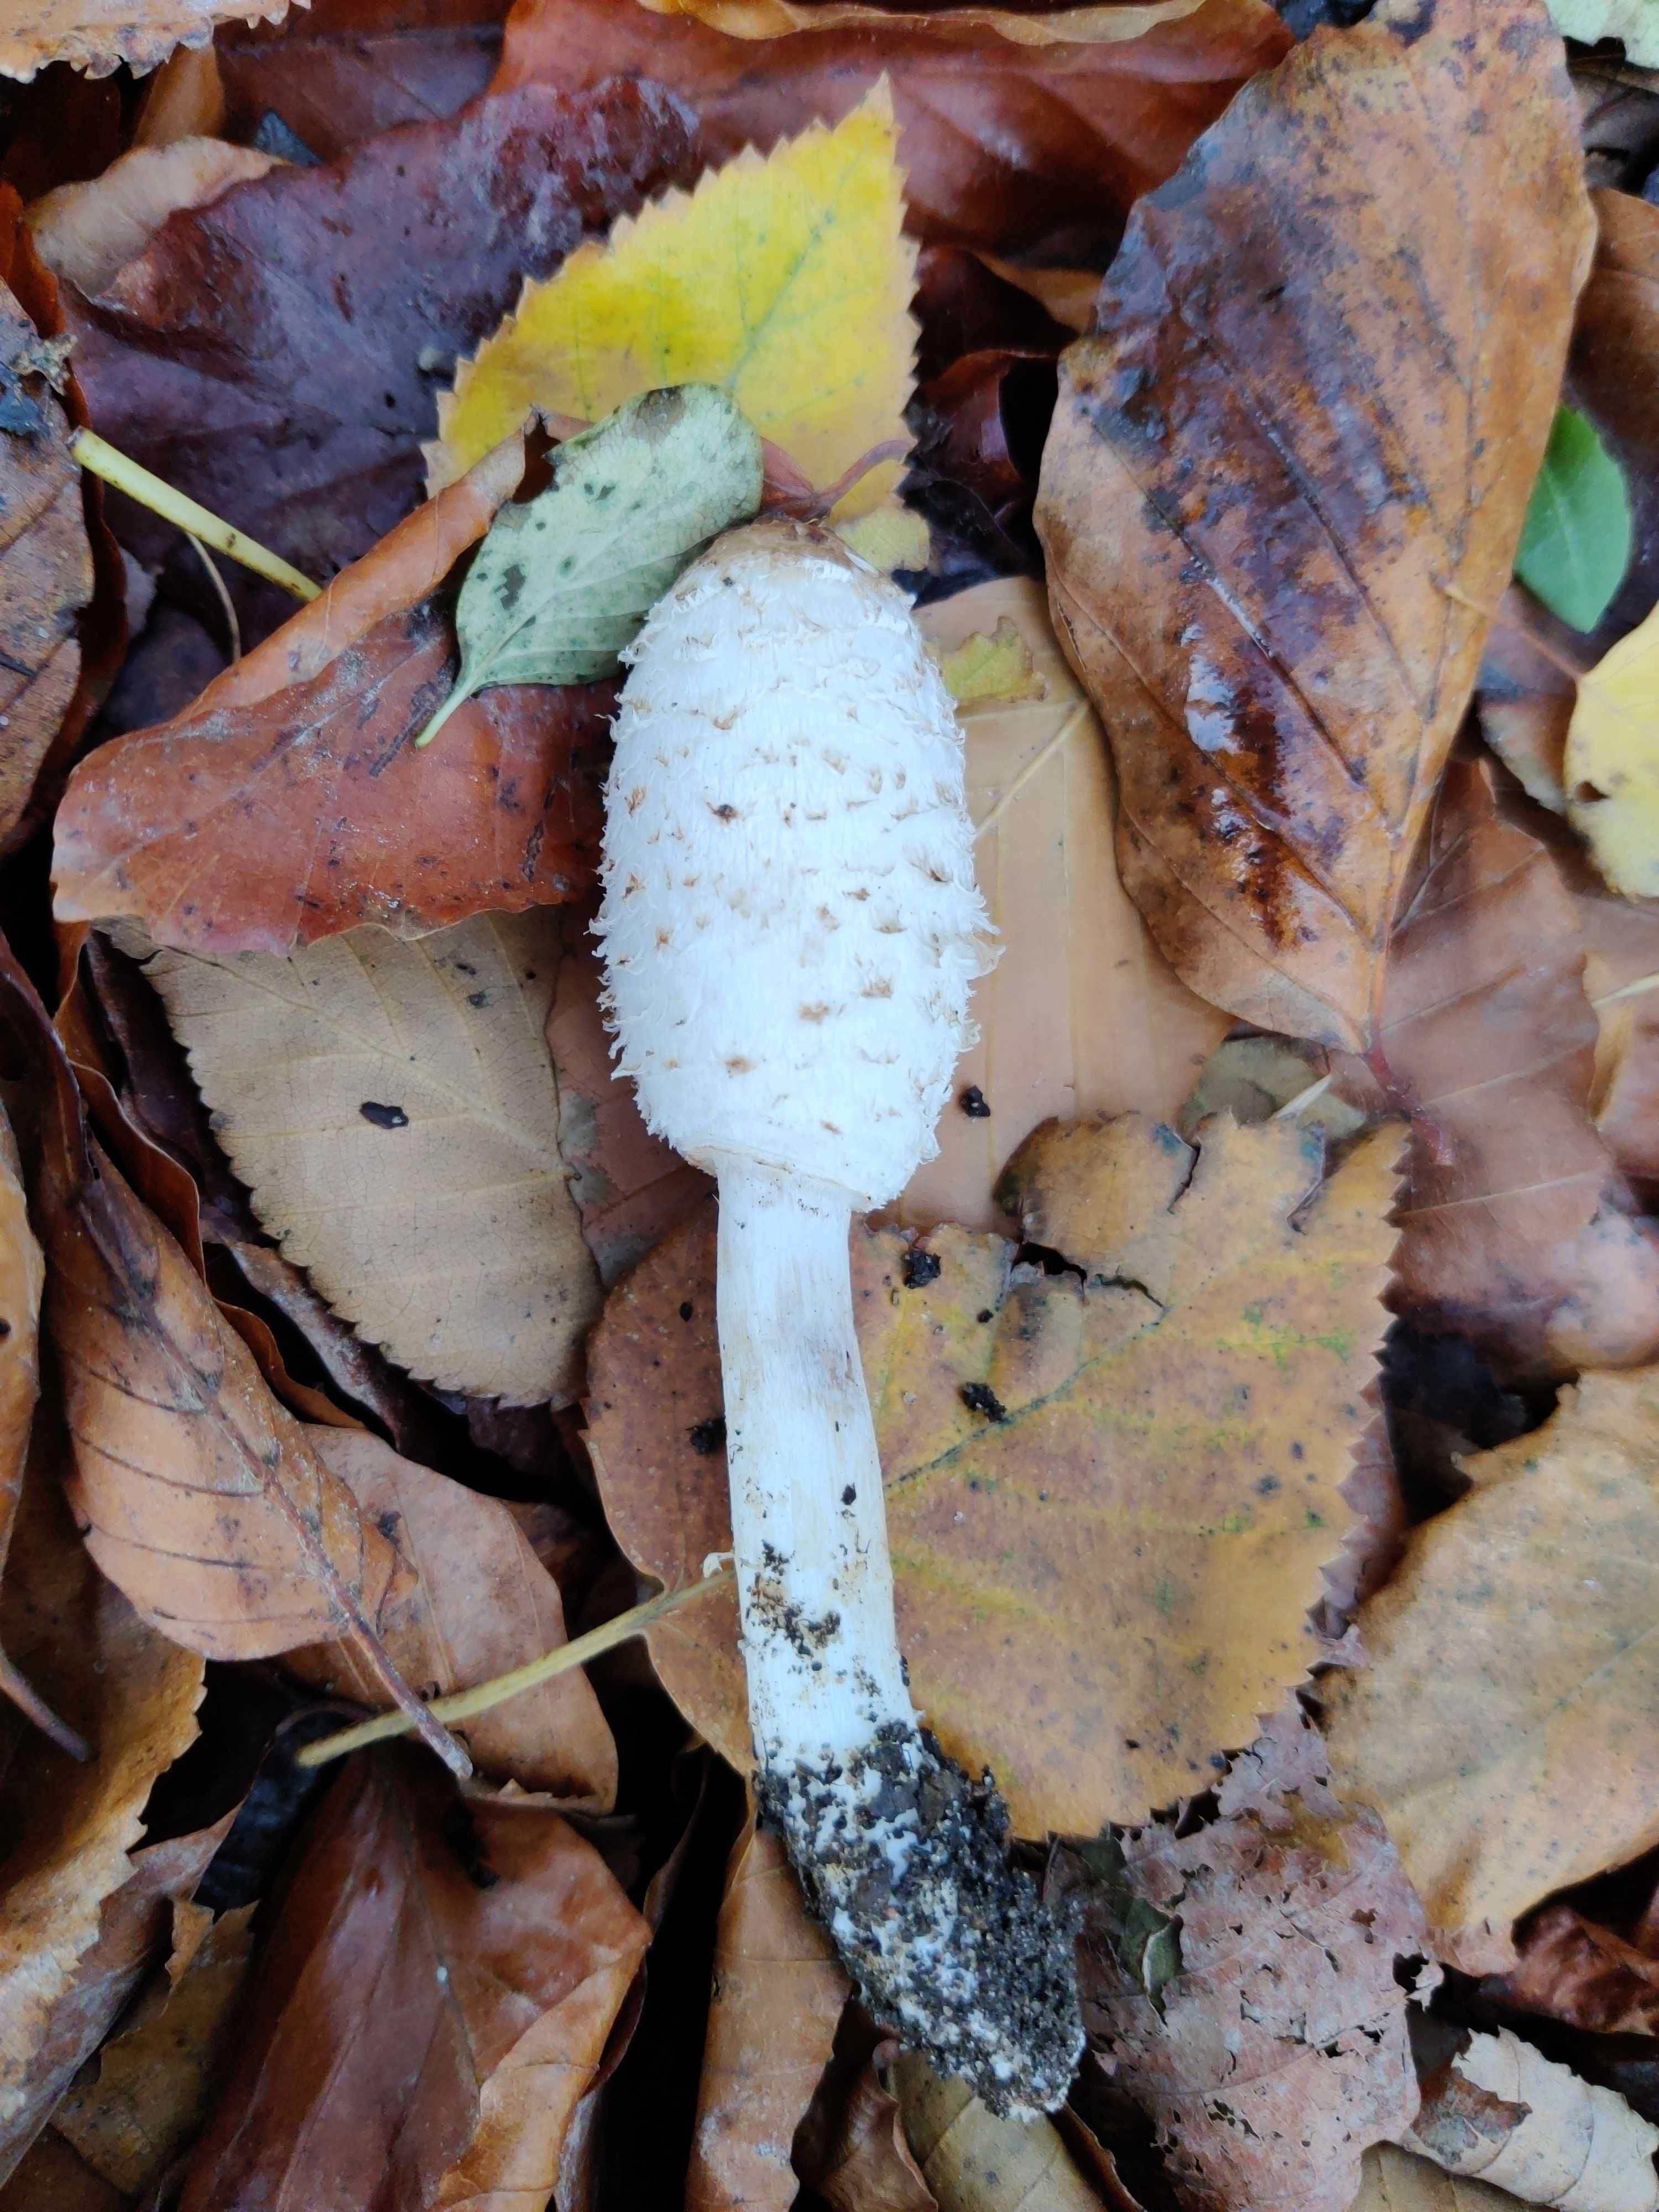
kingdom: Fungi
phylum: Basidiomycota
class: Agaricomycetes
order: Agaricales
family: Agaricaceae
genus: Coprinus
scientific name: Coprinus comatus
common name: stor parykhat
